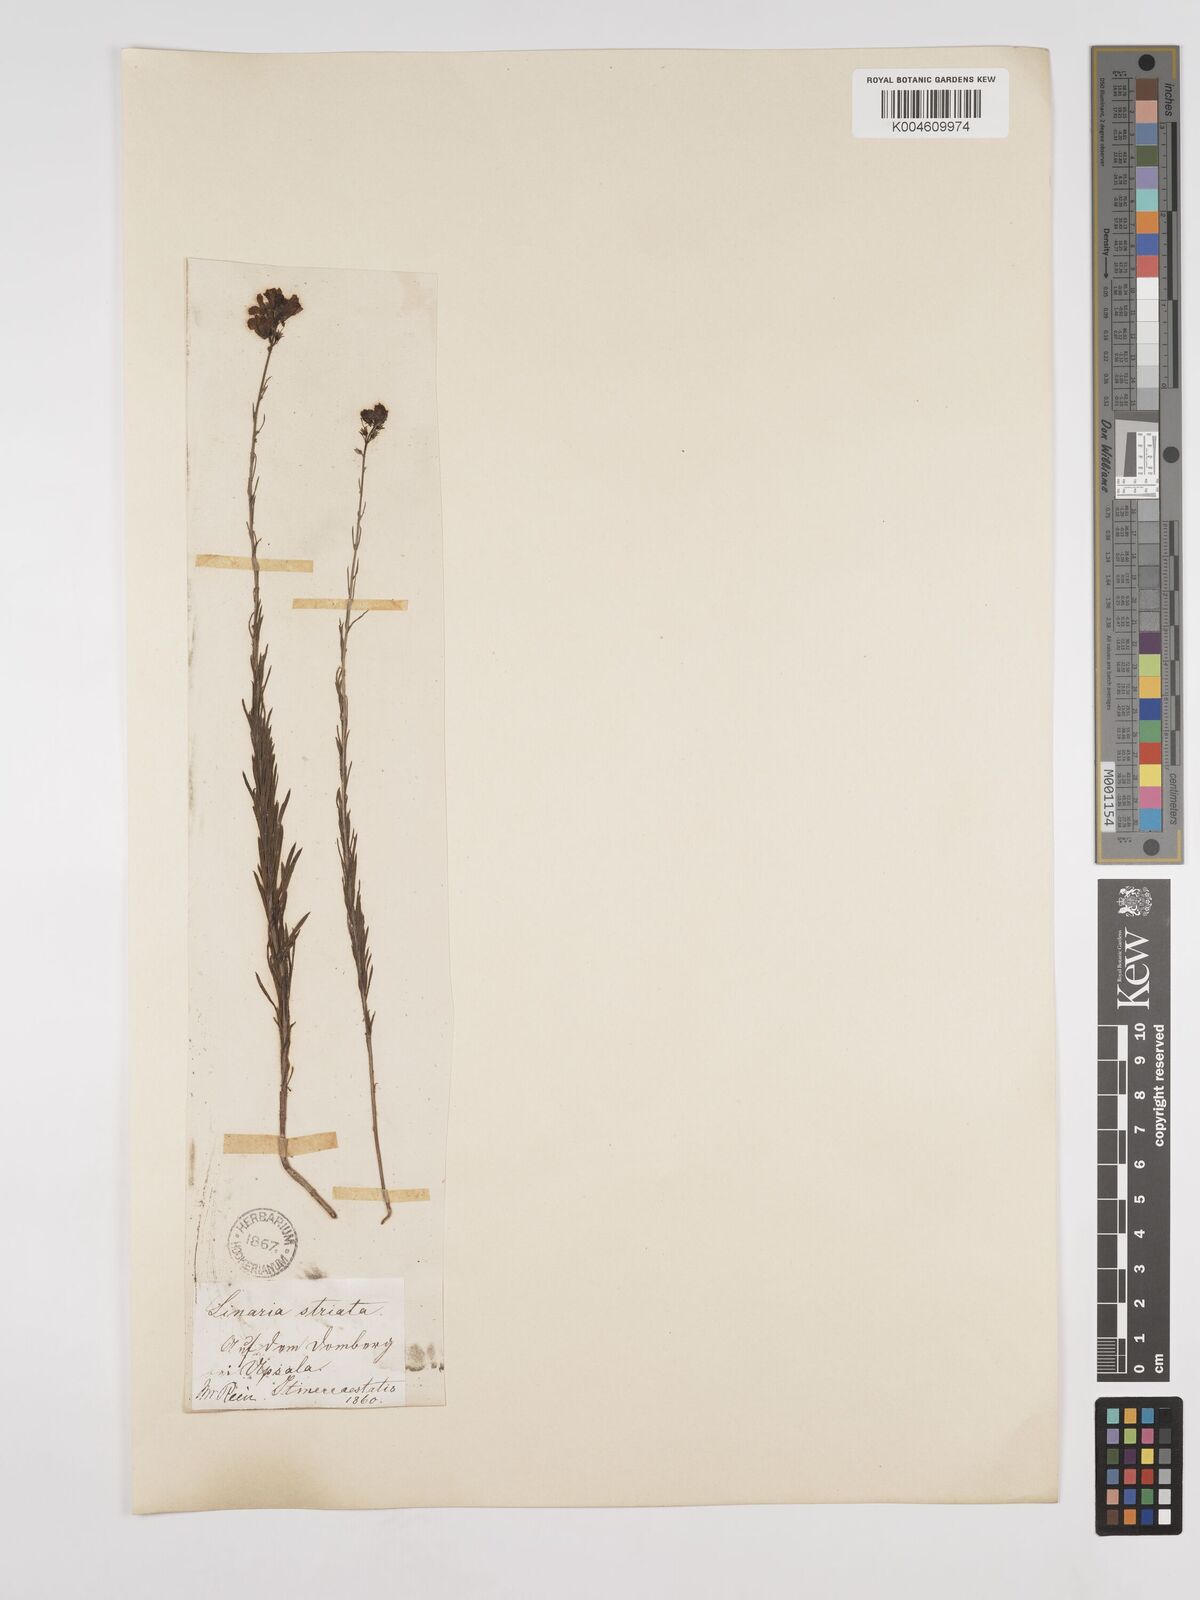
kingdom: Plantae
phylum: Tracheophyta
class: Magnoliopsida
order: Lamiales
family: Plantaginaceae
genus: Linaria
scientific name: Linaria
